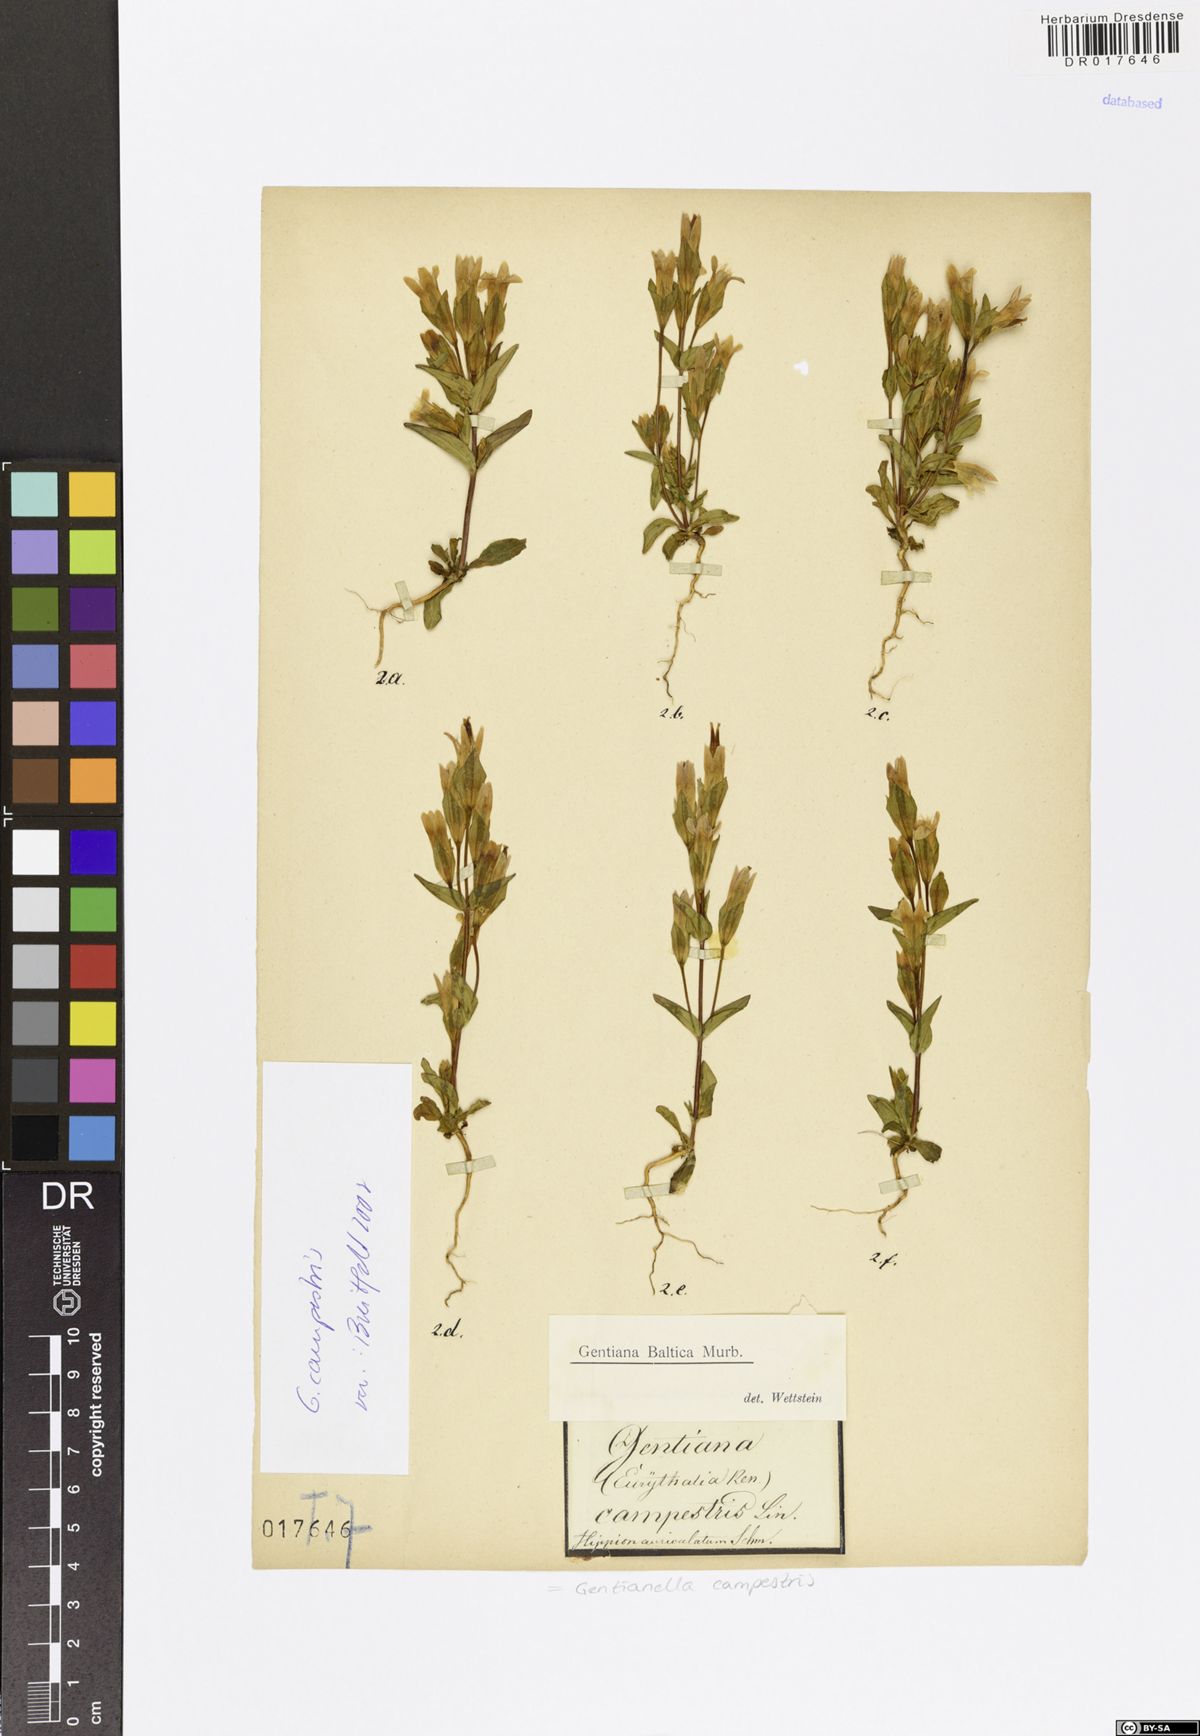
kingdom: Plantae
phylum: Tracheophyta
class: Magnoliopsida
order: Gentianales
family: Gentianaceae
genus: Gentianella
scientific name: Gentianella campestris
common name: Field gentian
